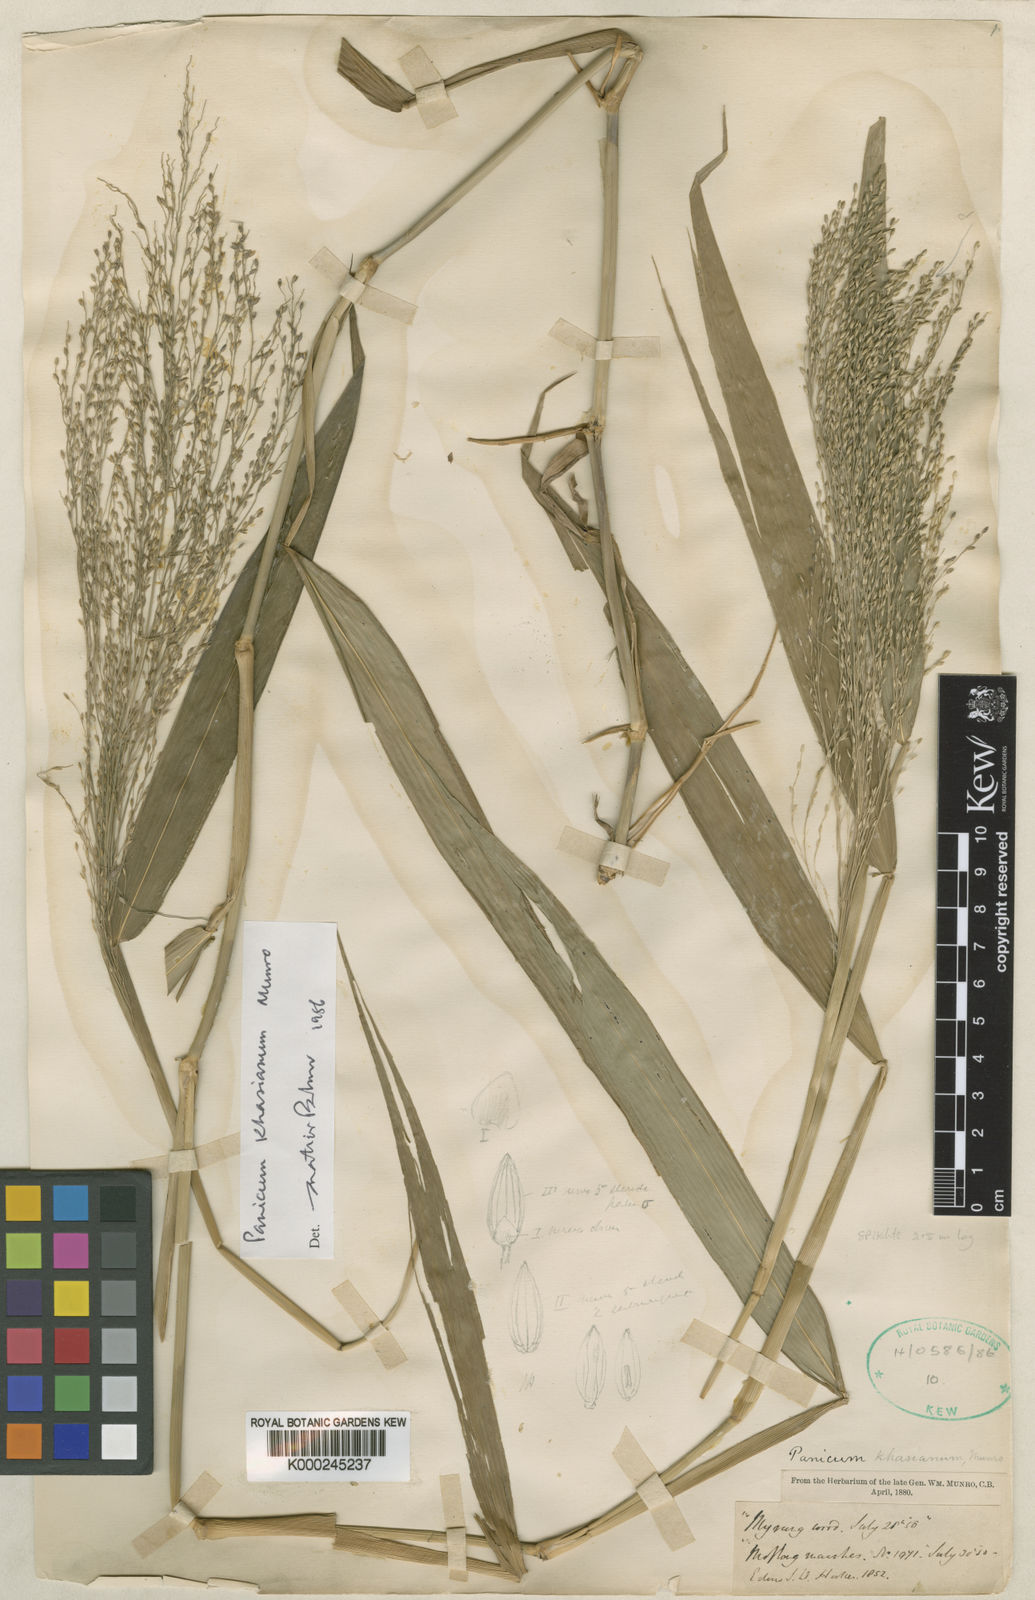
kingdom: Plantae
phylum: Tracheophyta
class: Liliopsida
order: Poales
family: Poaceae
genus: Panicum
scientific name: Panicum
